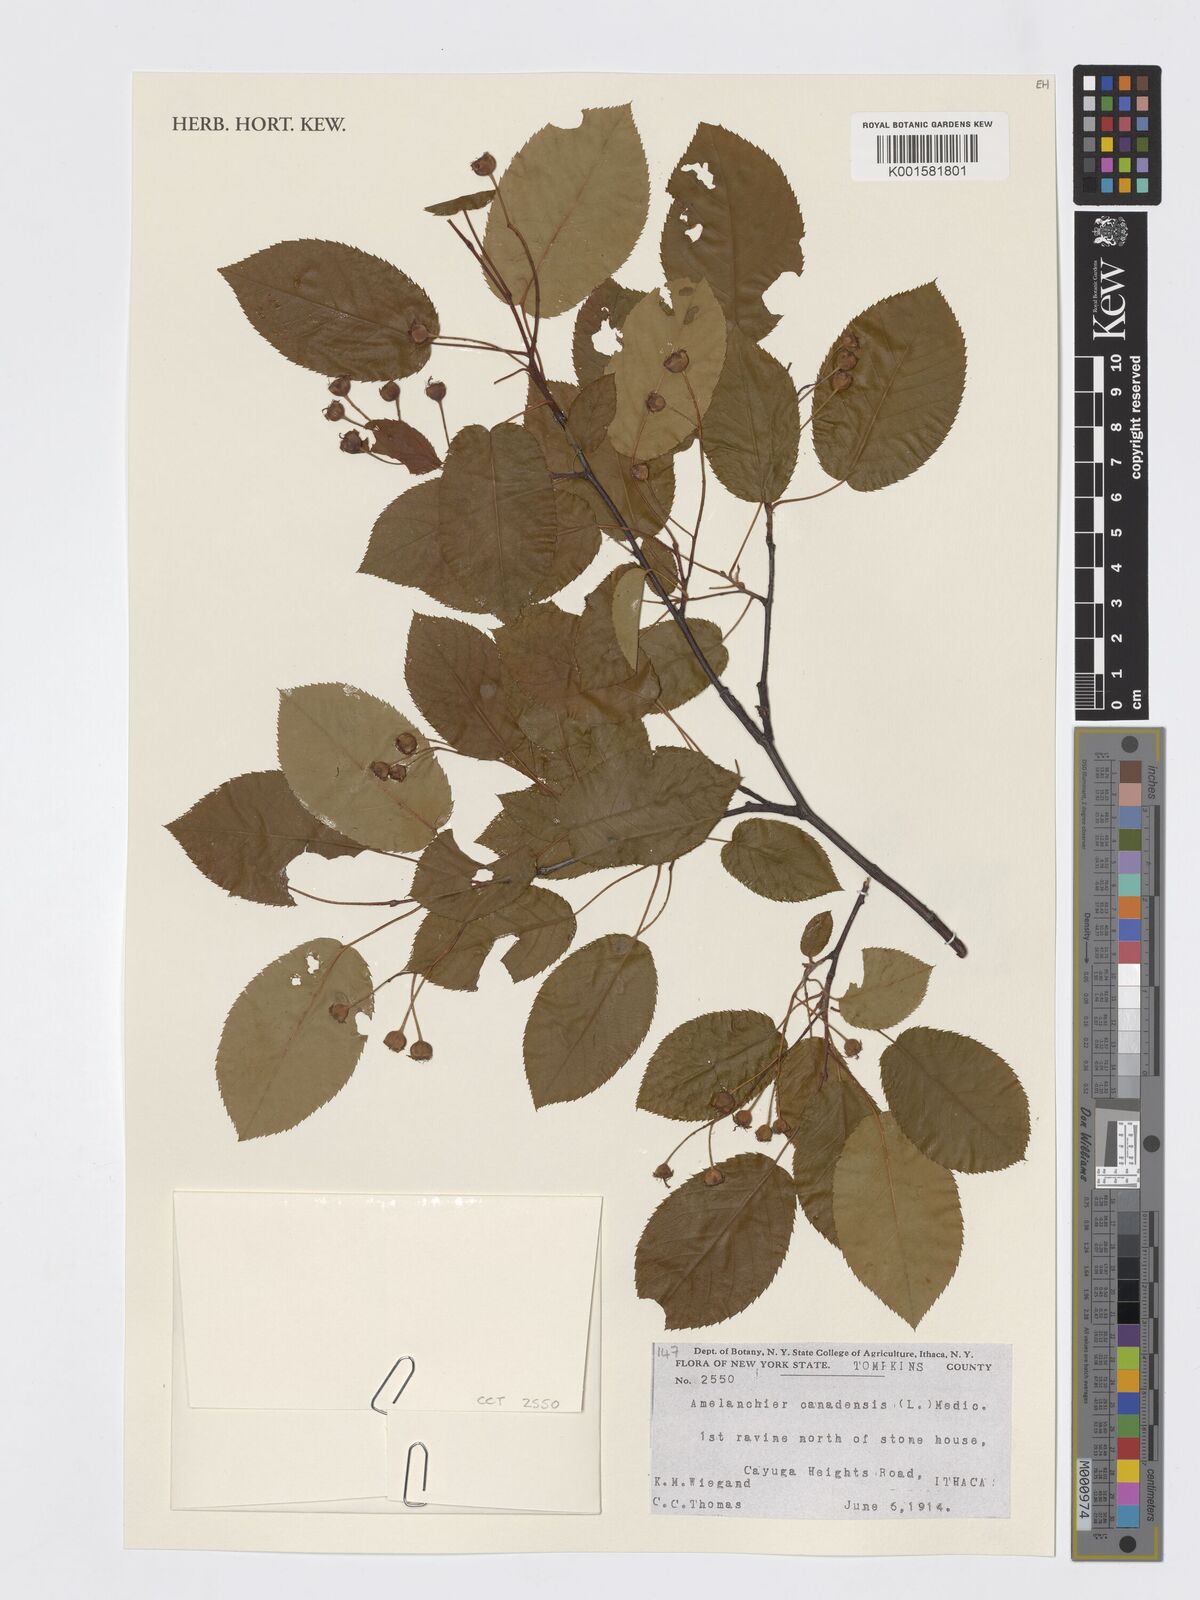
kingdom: Plantae
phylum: Tracheophyta
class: Magnoliopsida
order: Rosales
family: Rosaceae
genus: Amelanchier
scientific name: Amelanchier canadensis
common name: Thicket serviceberry
